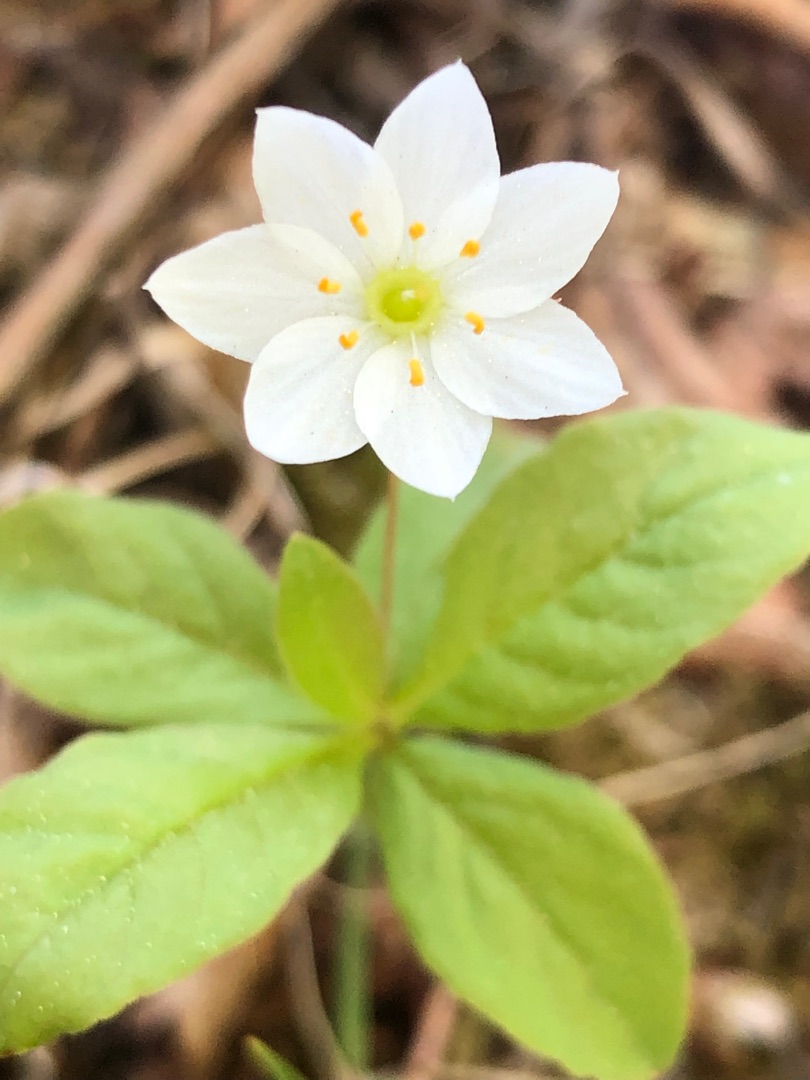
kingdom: Plantae
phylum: Tracheophyta
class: Magnoliopsida
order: Ericales
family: Primulaceae
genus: Lysimachia
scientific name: Lysimachia europaea
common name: Skovstjerne
